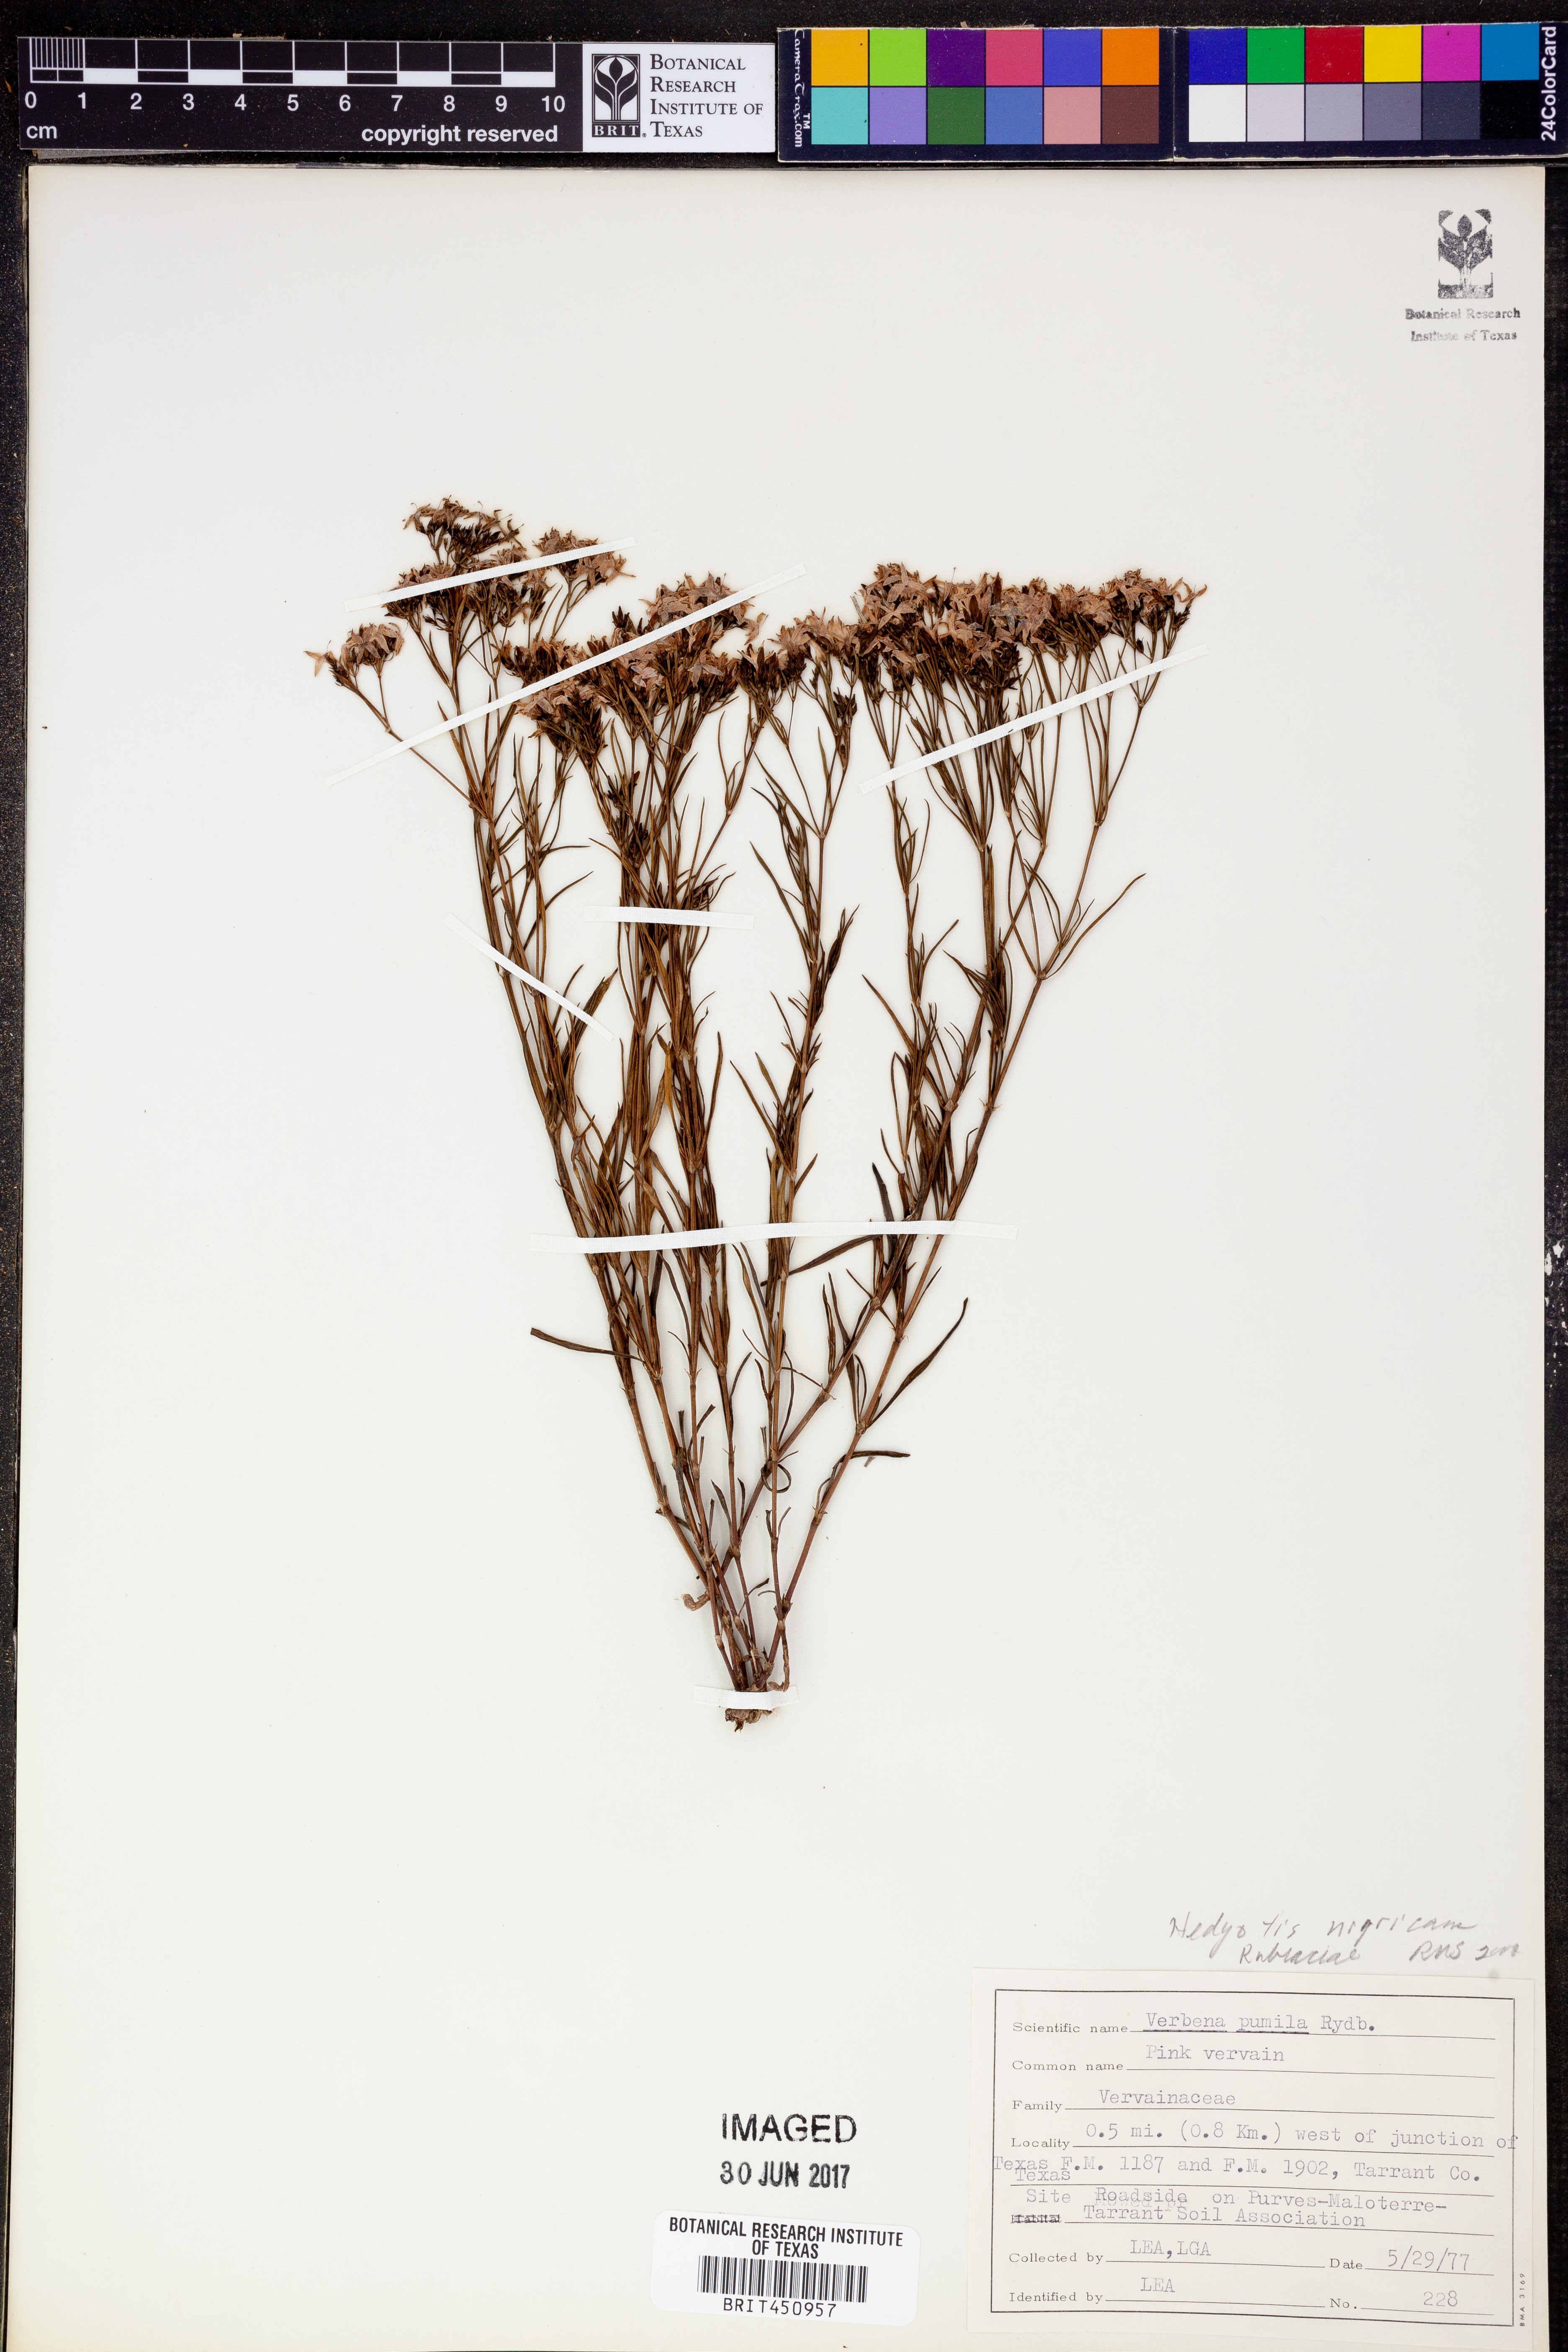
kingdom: Plantae
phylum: Tracheophyta
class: Magnoliopsida
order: Gentianales
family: Rubiaceae
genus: Stenaria
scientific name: Stenaria nigricans
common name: Diamondflowers
